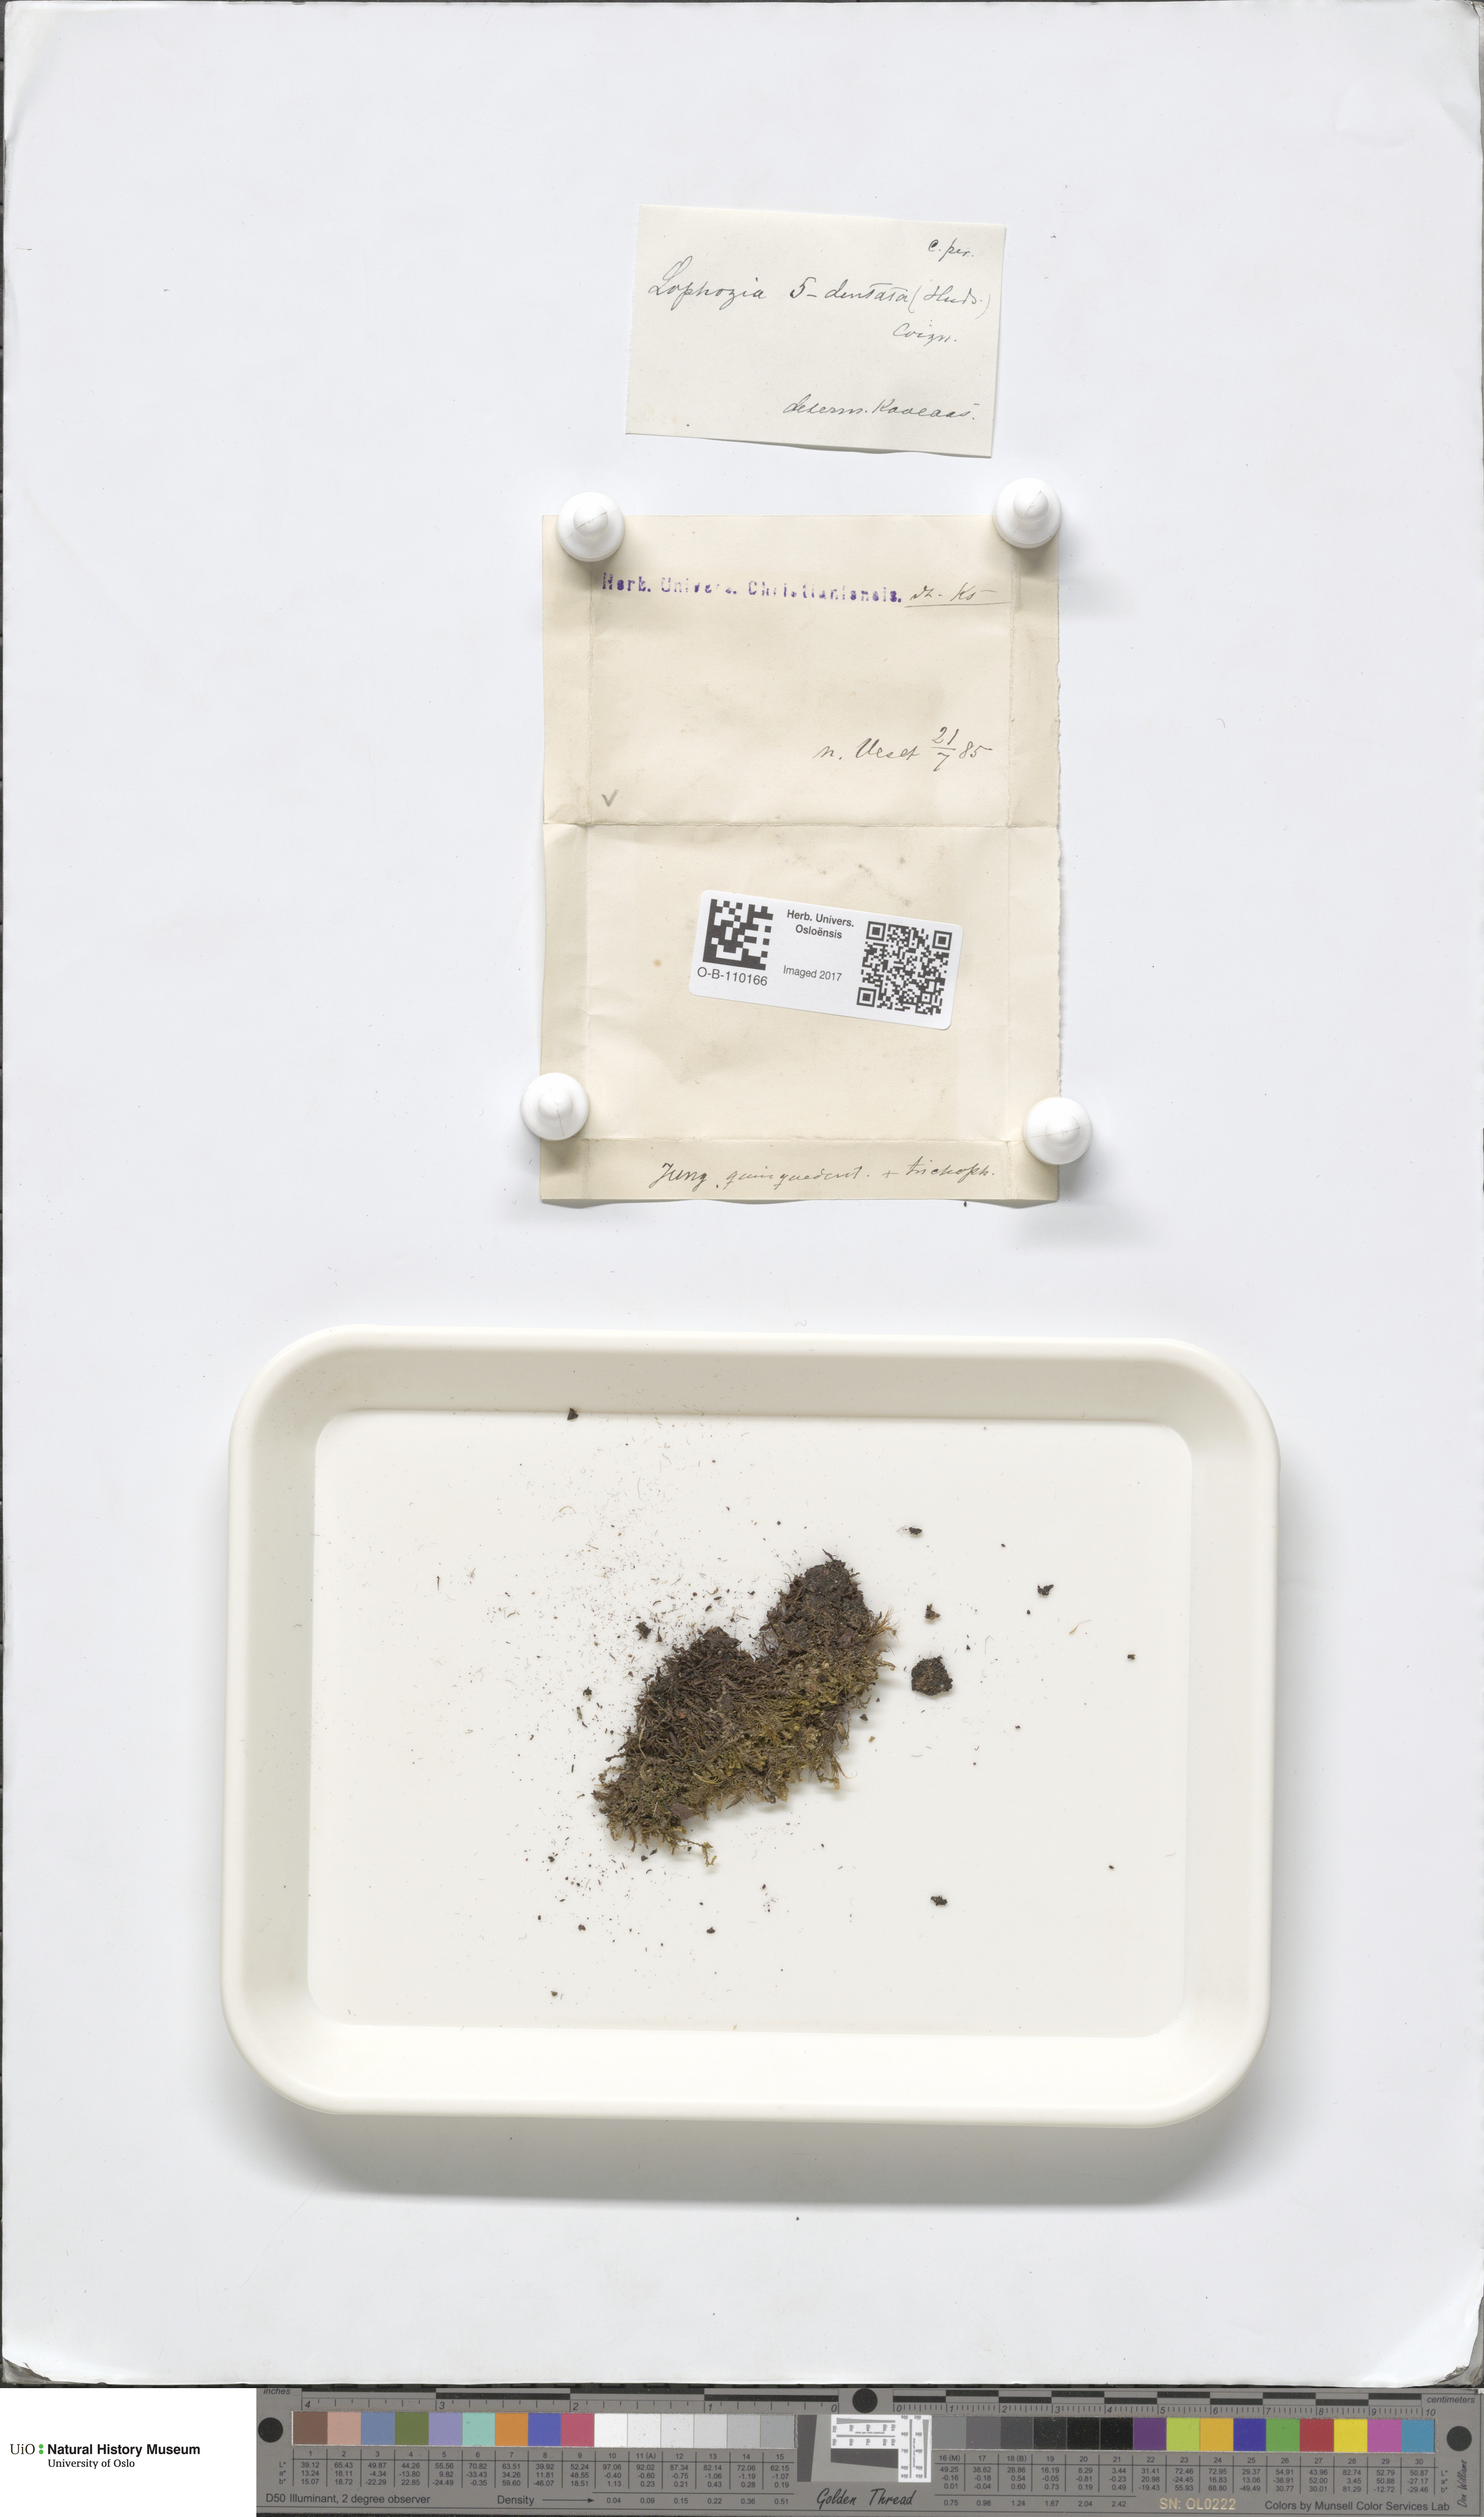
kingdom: Plantae
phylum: Marchantiophyta
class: Jungermanniopsida
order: Jungermanniales
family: Lophoziaceae
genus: Trilophozia
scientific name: Trilophozia quinquedentata
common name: Large notchwort
